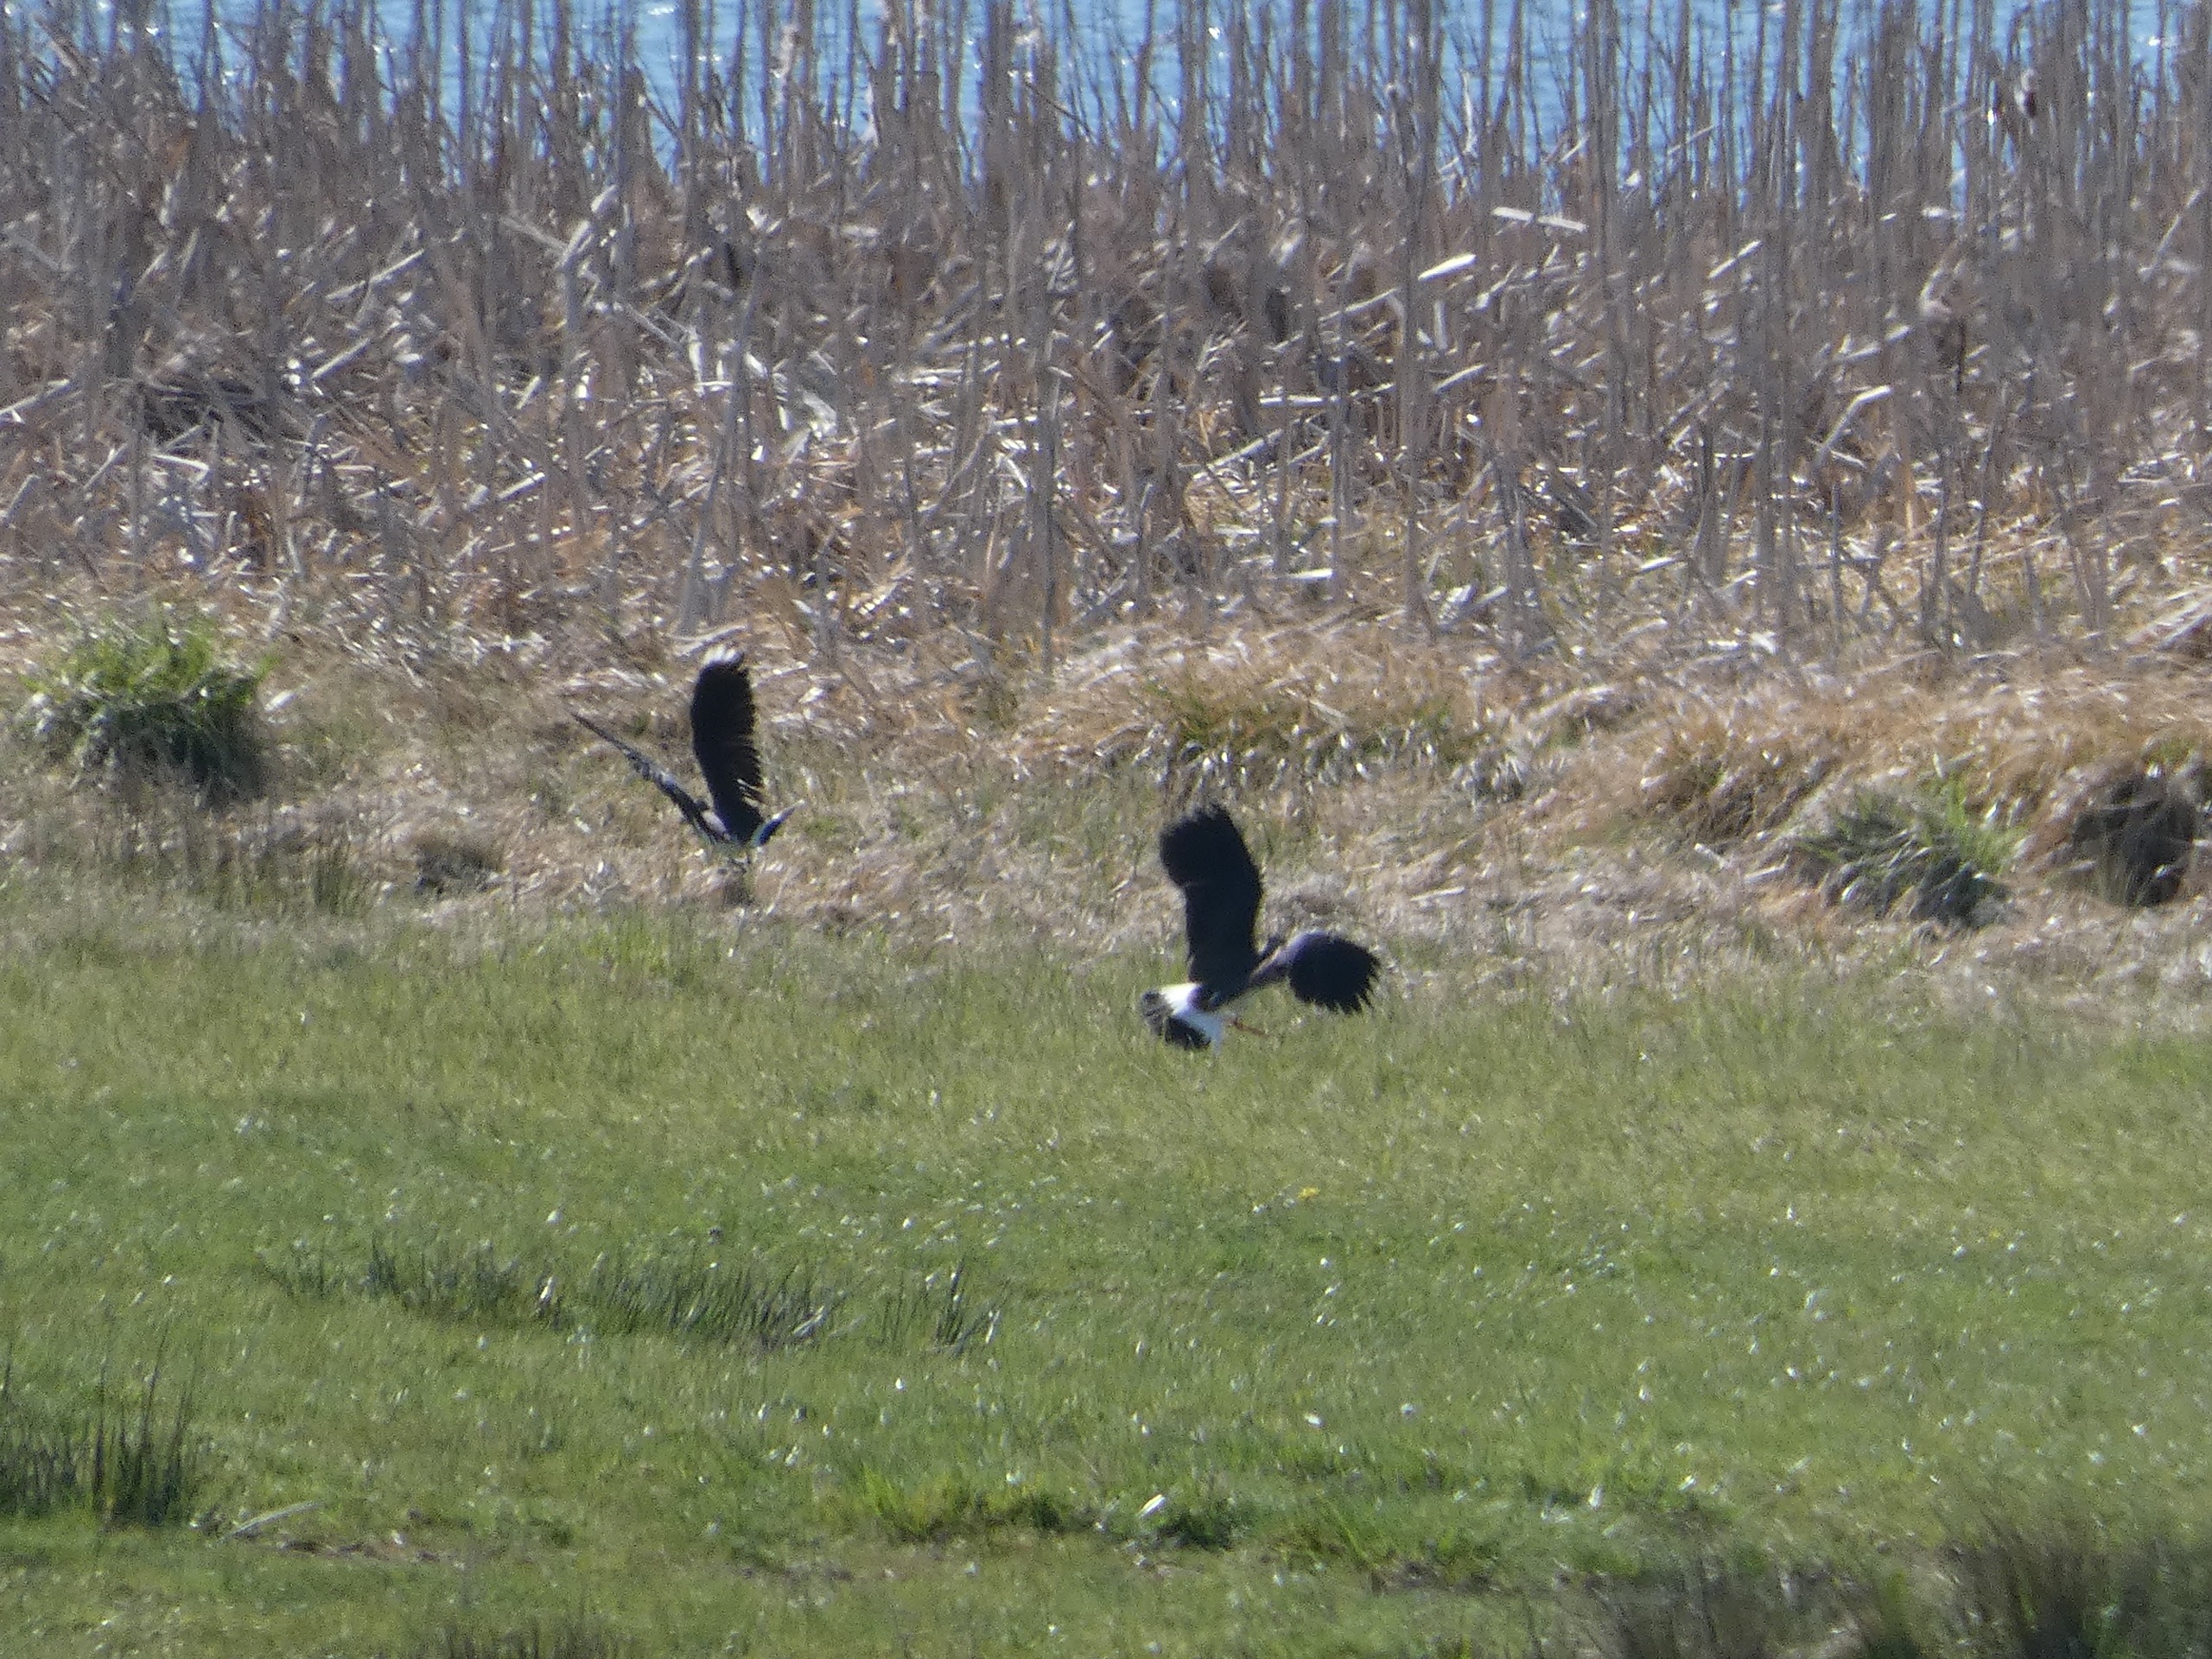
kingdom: Animalia
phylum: Chordata
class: Aves
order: Charadriiformes
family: Charadriidae
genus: Vanellus
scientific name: Vanellus vanellus
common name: Vibe
